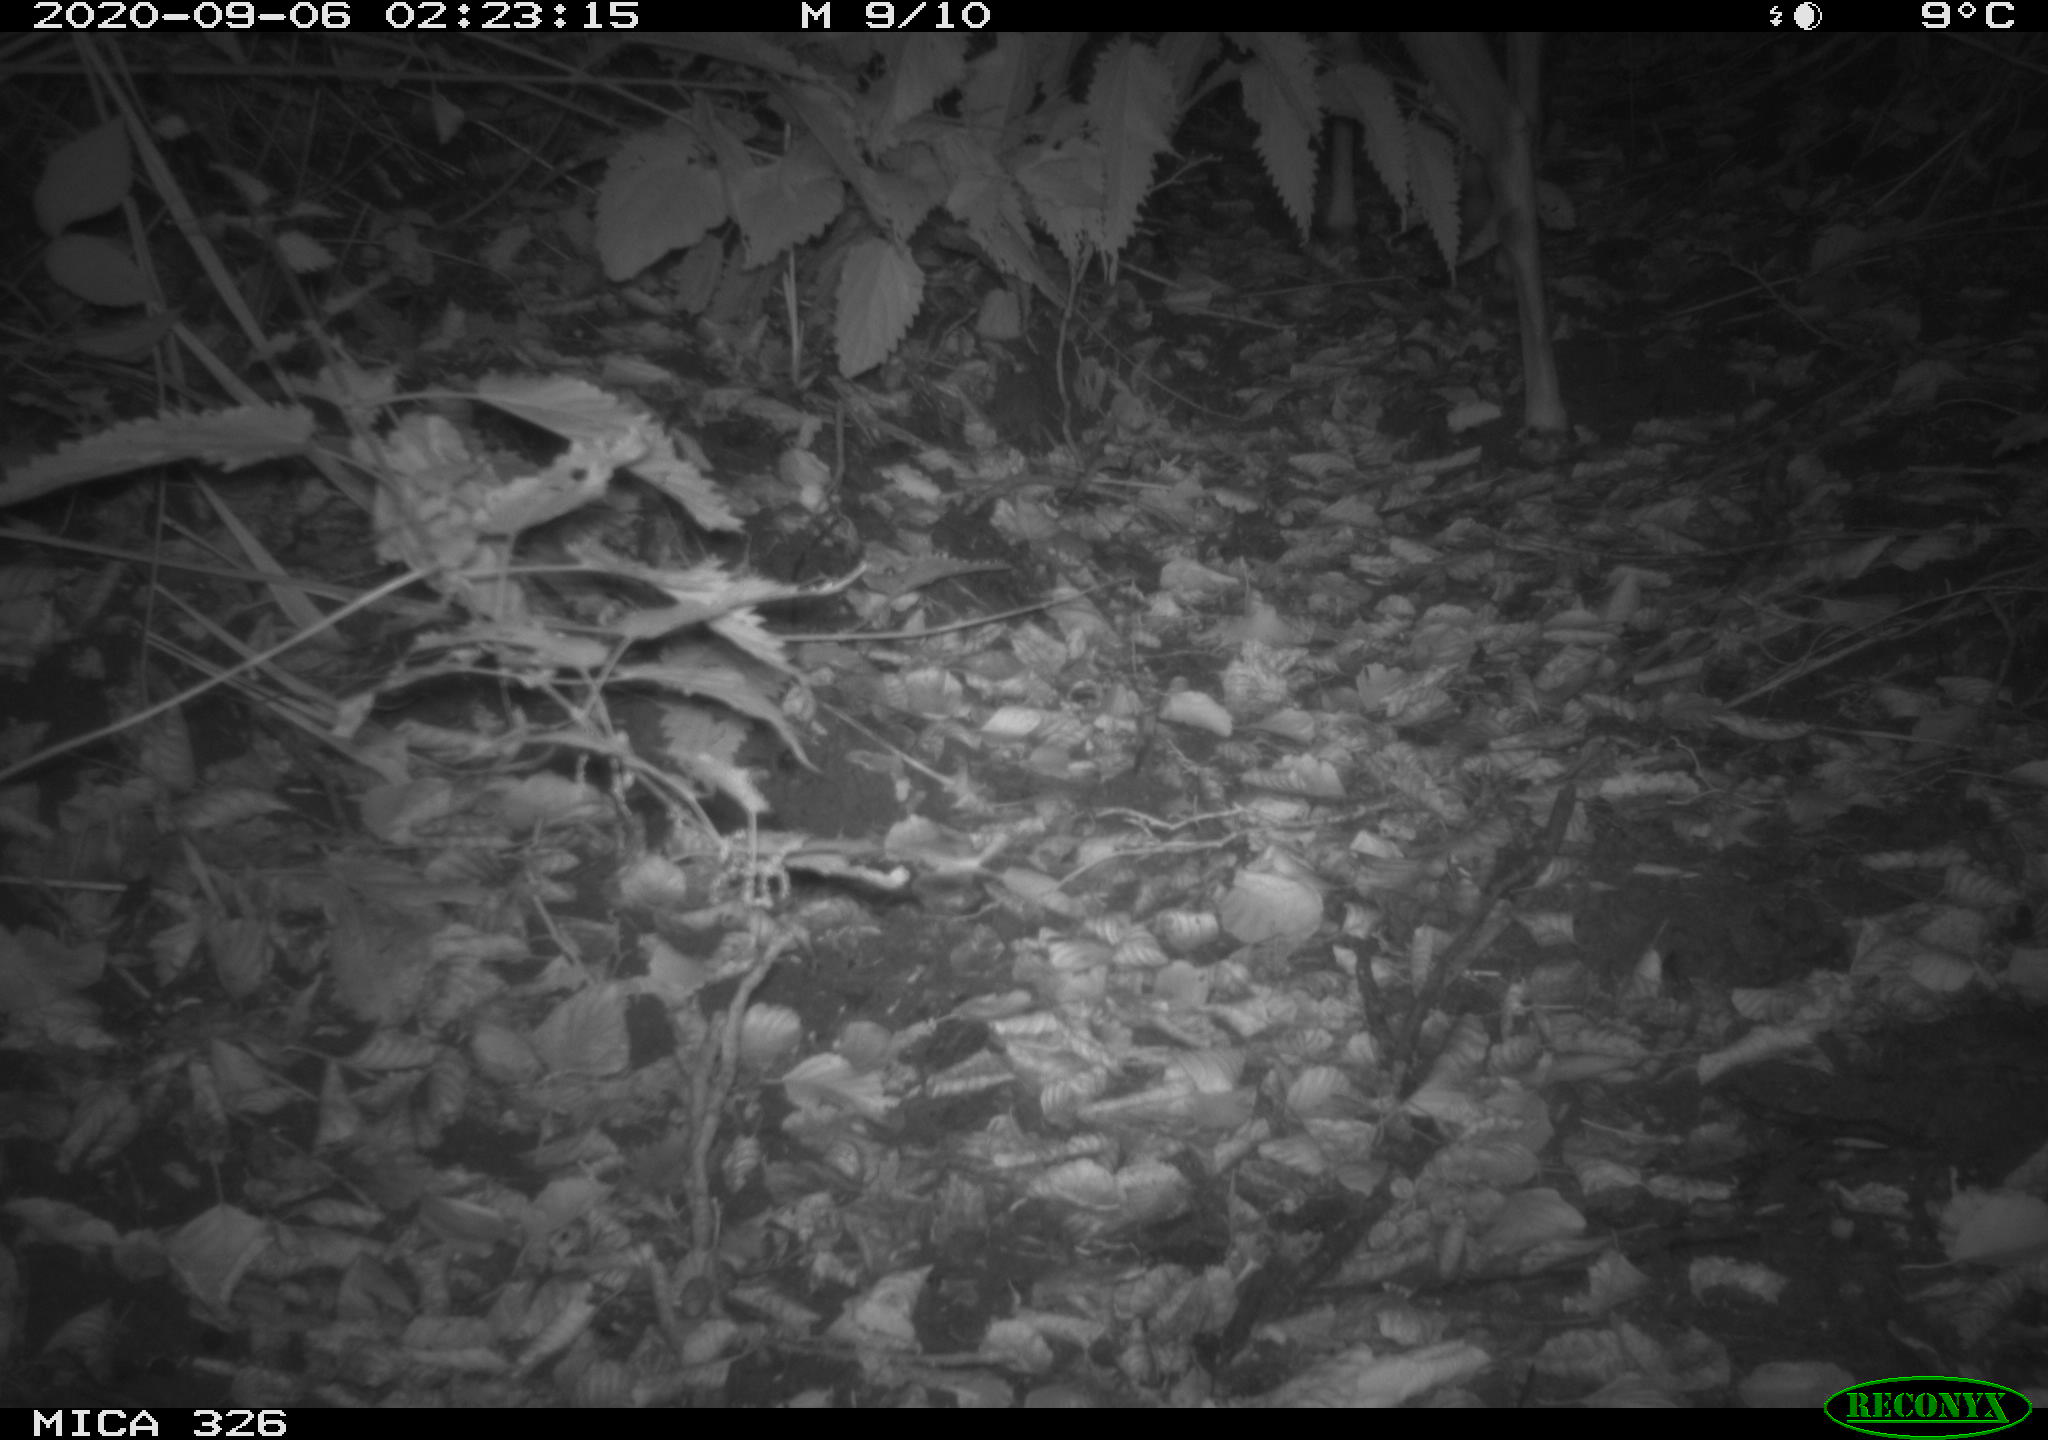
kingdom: Animalia
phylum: Chordata
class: Mammalia
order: Artiodactyla
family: Cervidae
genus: Capreolus
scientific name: Capreolus capreolus
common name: Western roe deer
